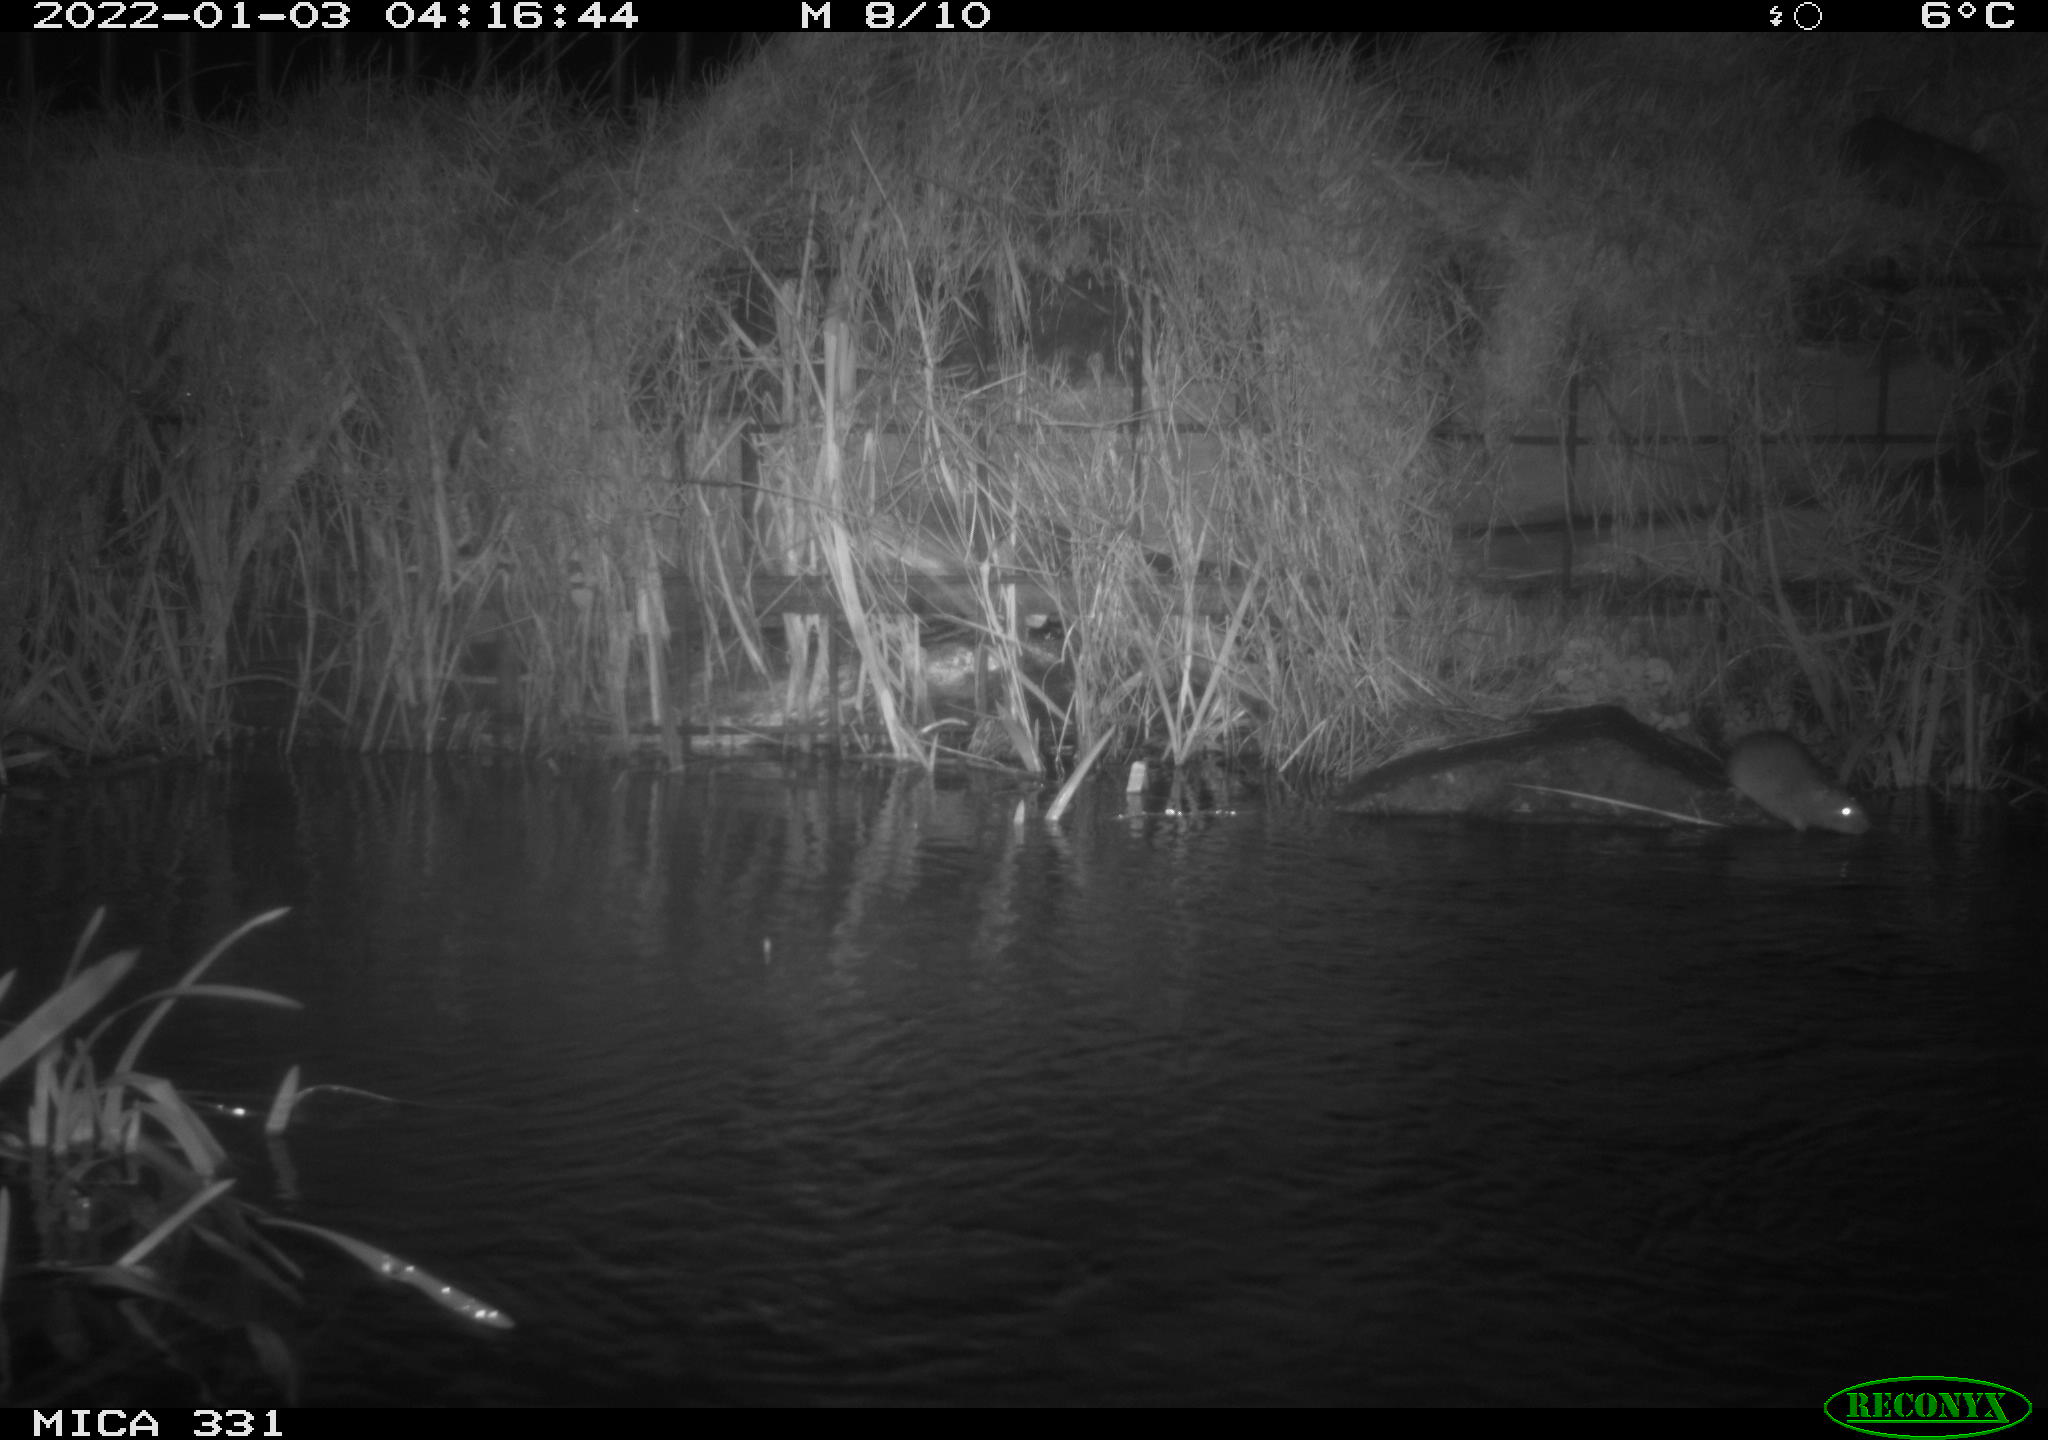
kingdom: Animalia
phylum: Chordata
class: Mammalia
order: Rodentia
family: Muridae
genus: Rattus
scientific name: Rattus norvegicus
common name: Brown rat
